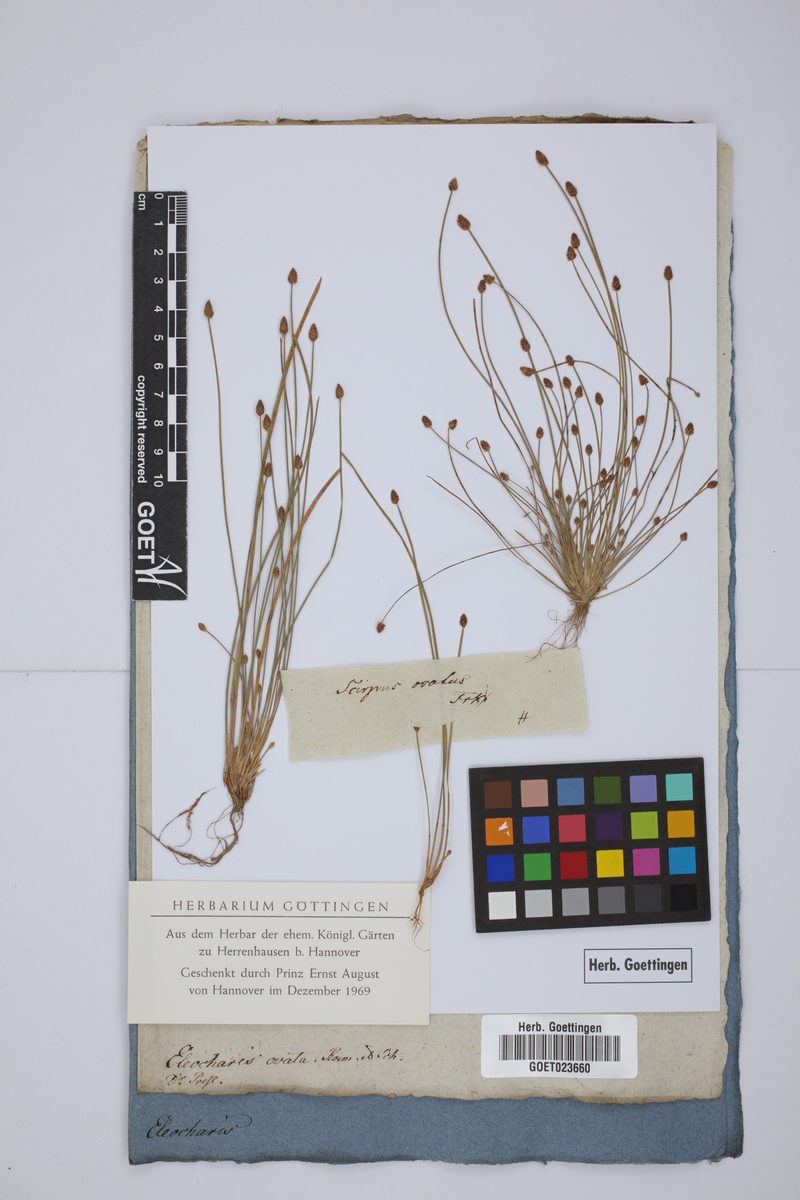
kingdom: Plantae
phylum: Tracheophyta
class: Liliopsida
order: Poales
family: Cyperaceae
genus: Eleocharis
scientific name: Eleocharis ovata
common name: Oval spike-rush
